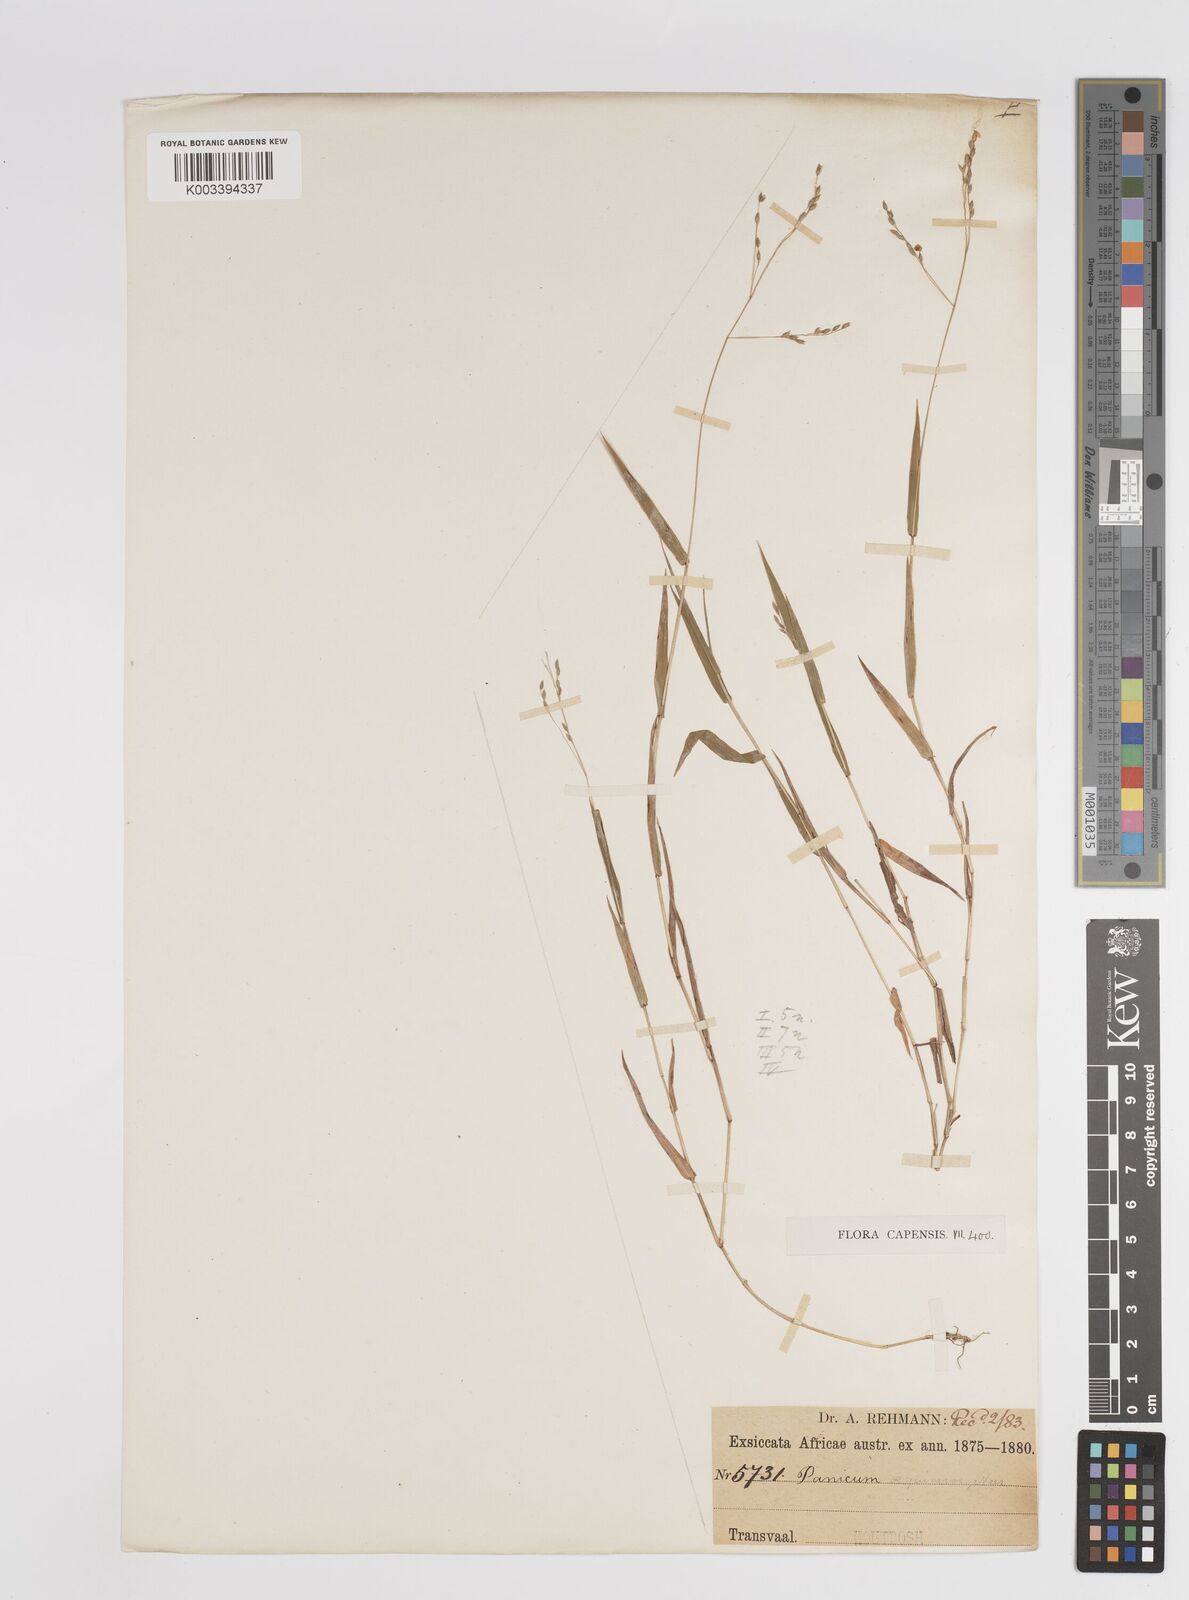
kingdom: Plantae
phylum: Tracheophyta
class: Liliopsida
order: Poales
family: Poaceae
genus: Panicum
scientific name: Panicum aequinerve
